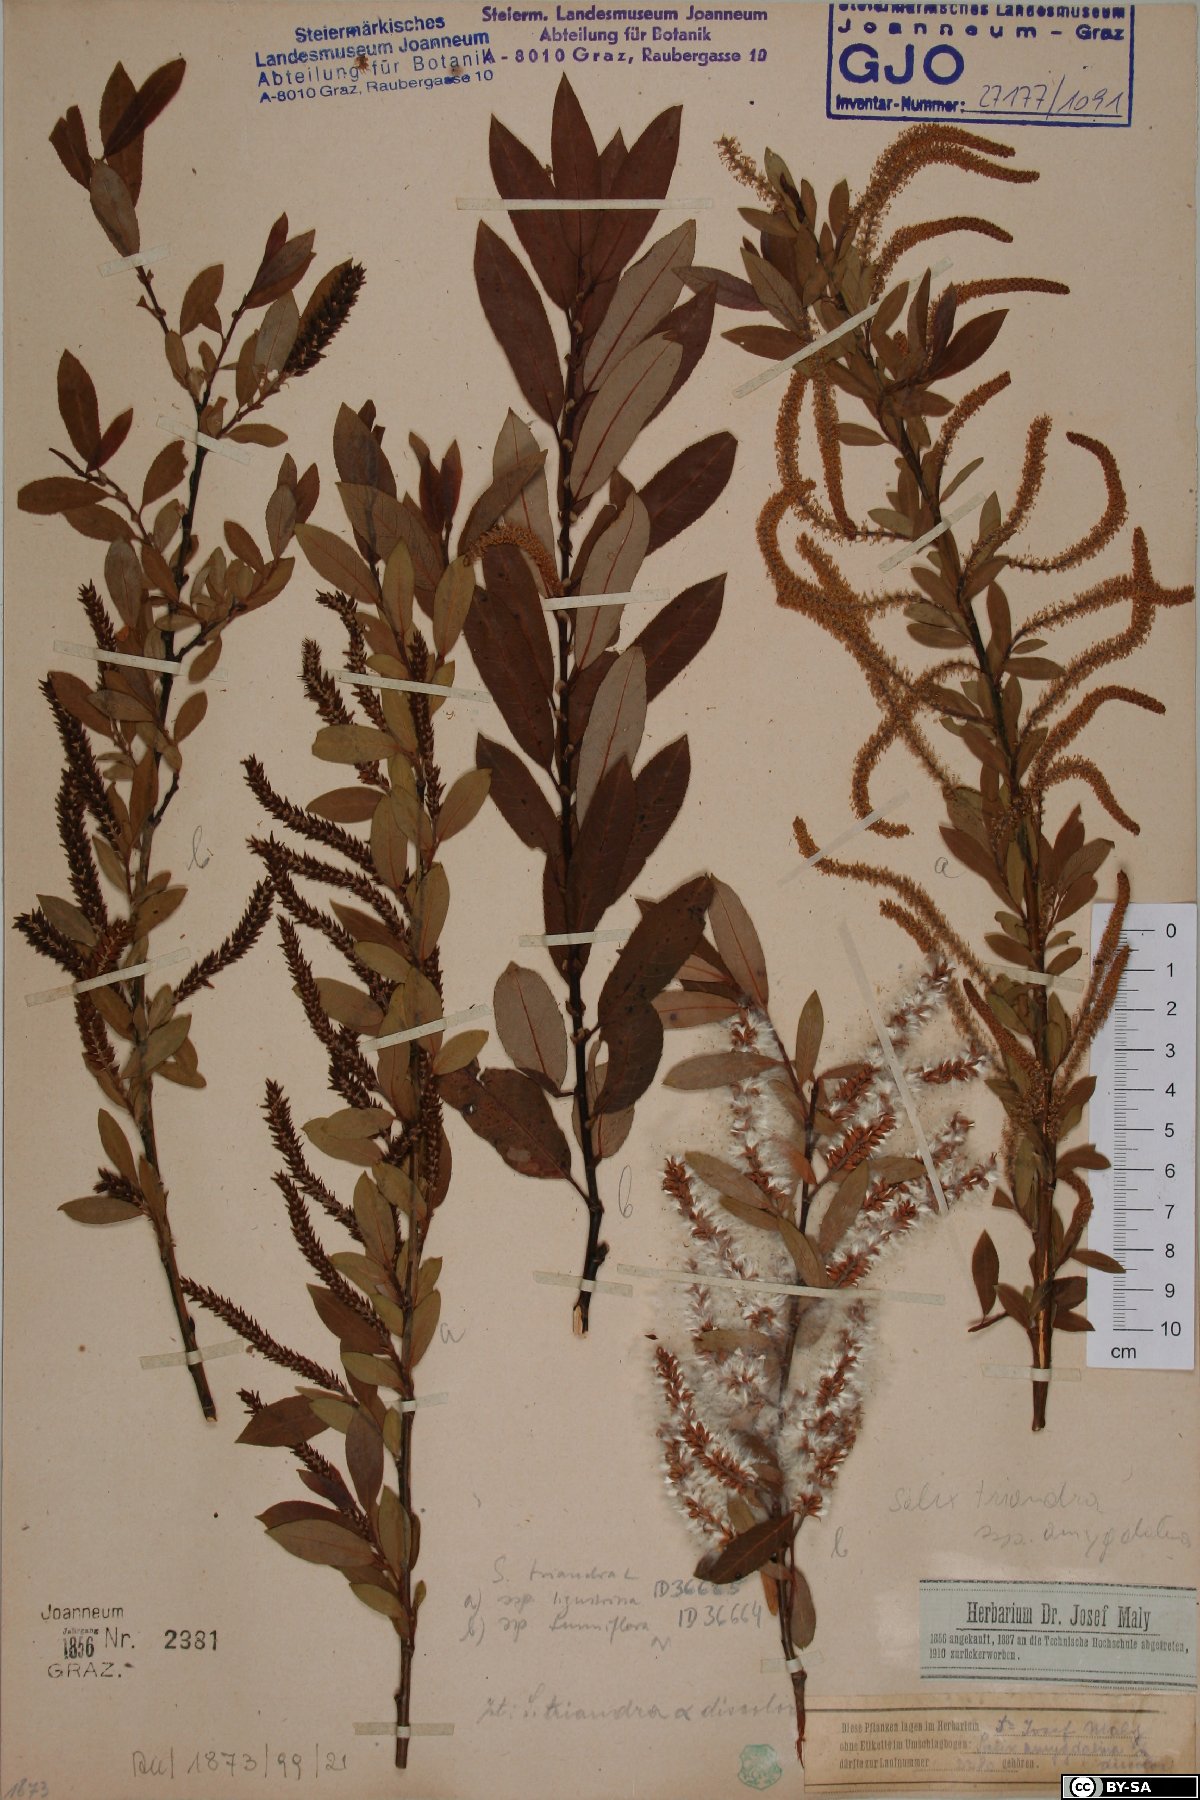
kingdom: Plantae
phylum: Tracheophyta
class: Magnoliopsida
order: Malpighiales
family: Salicaceae
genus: Salix
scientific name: Salix triandra
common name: Almond willow
